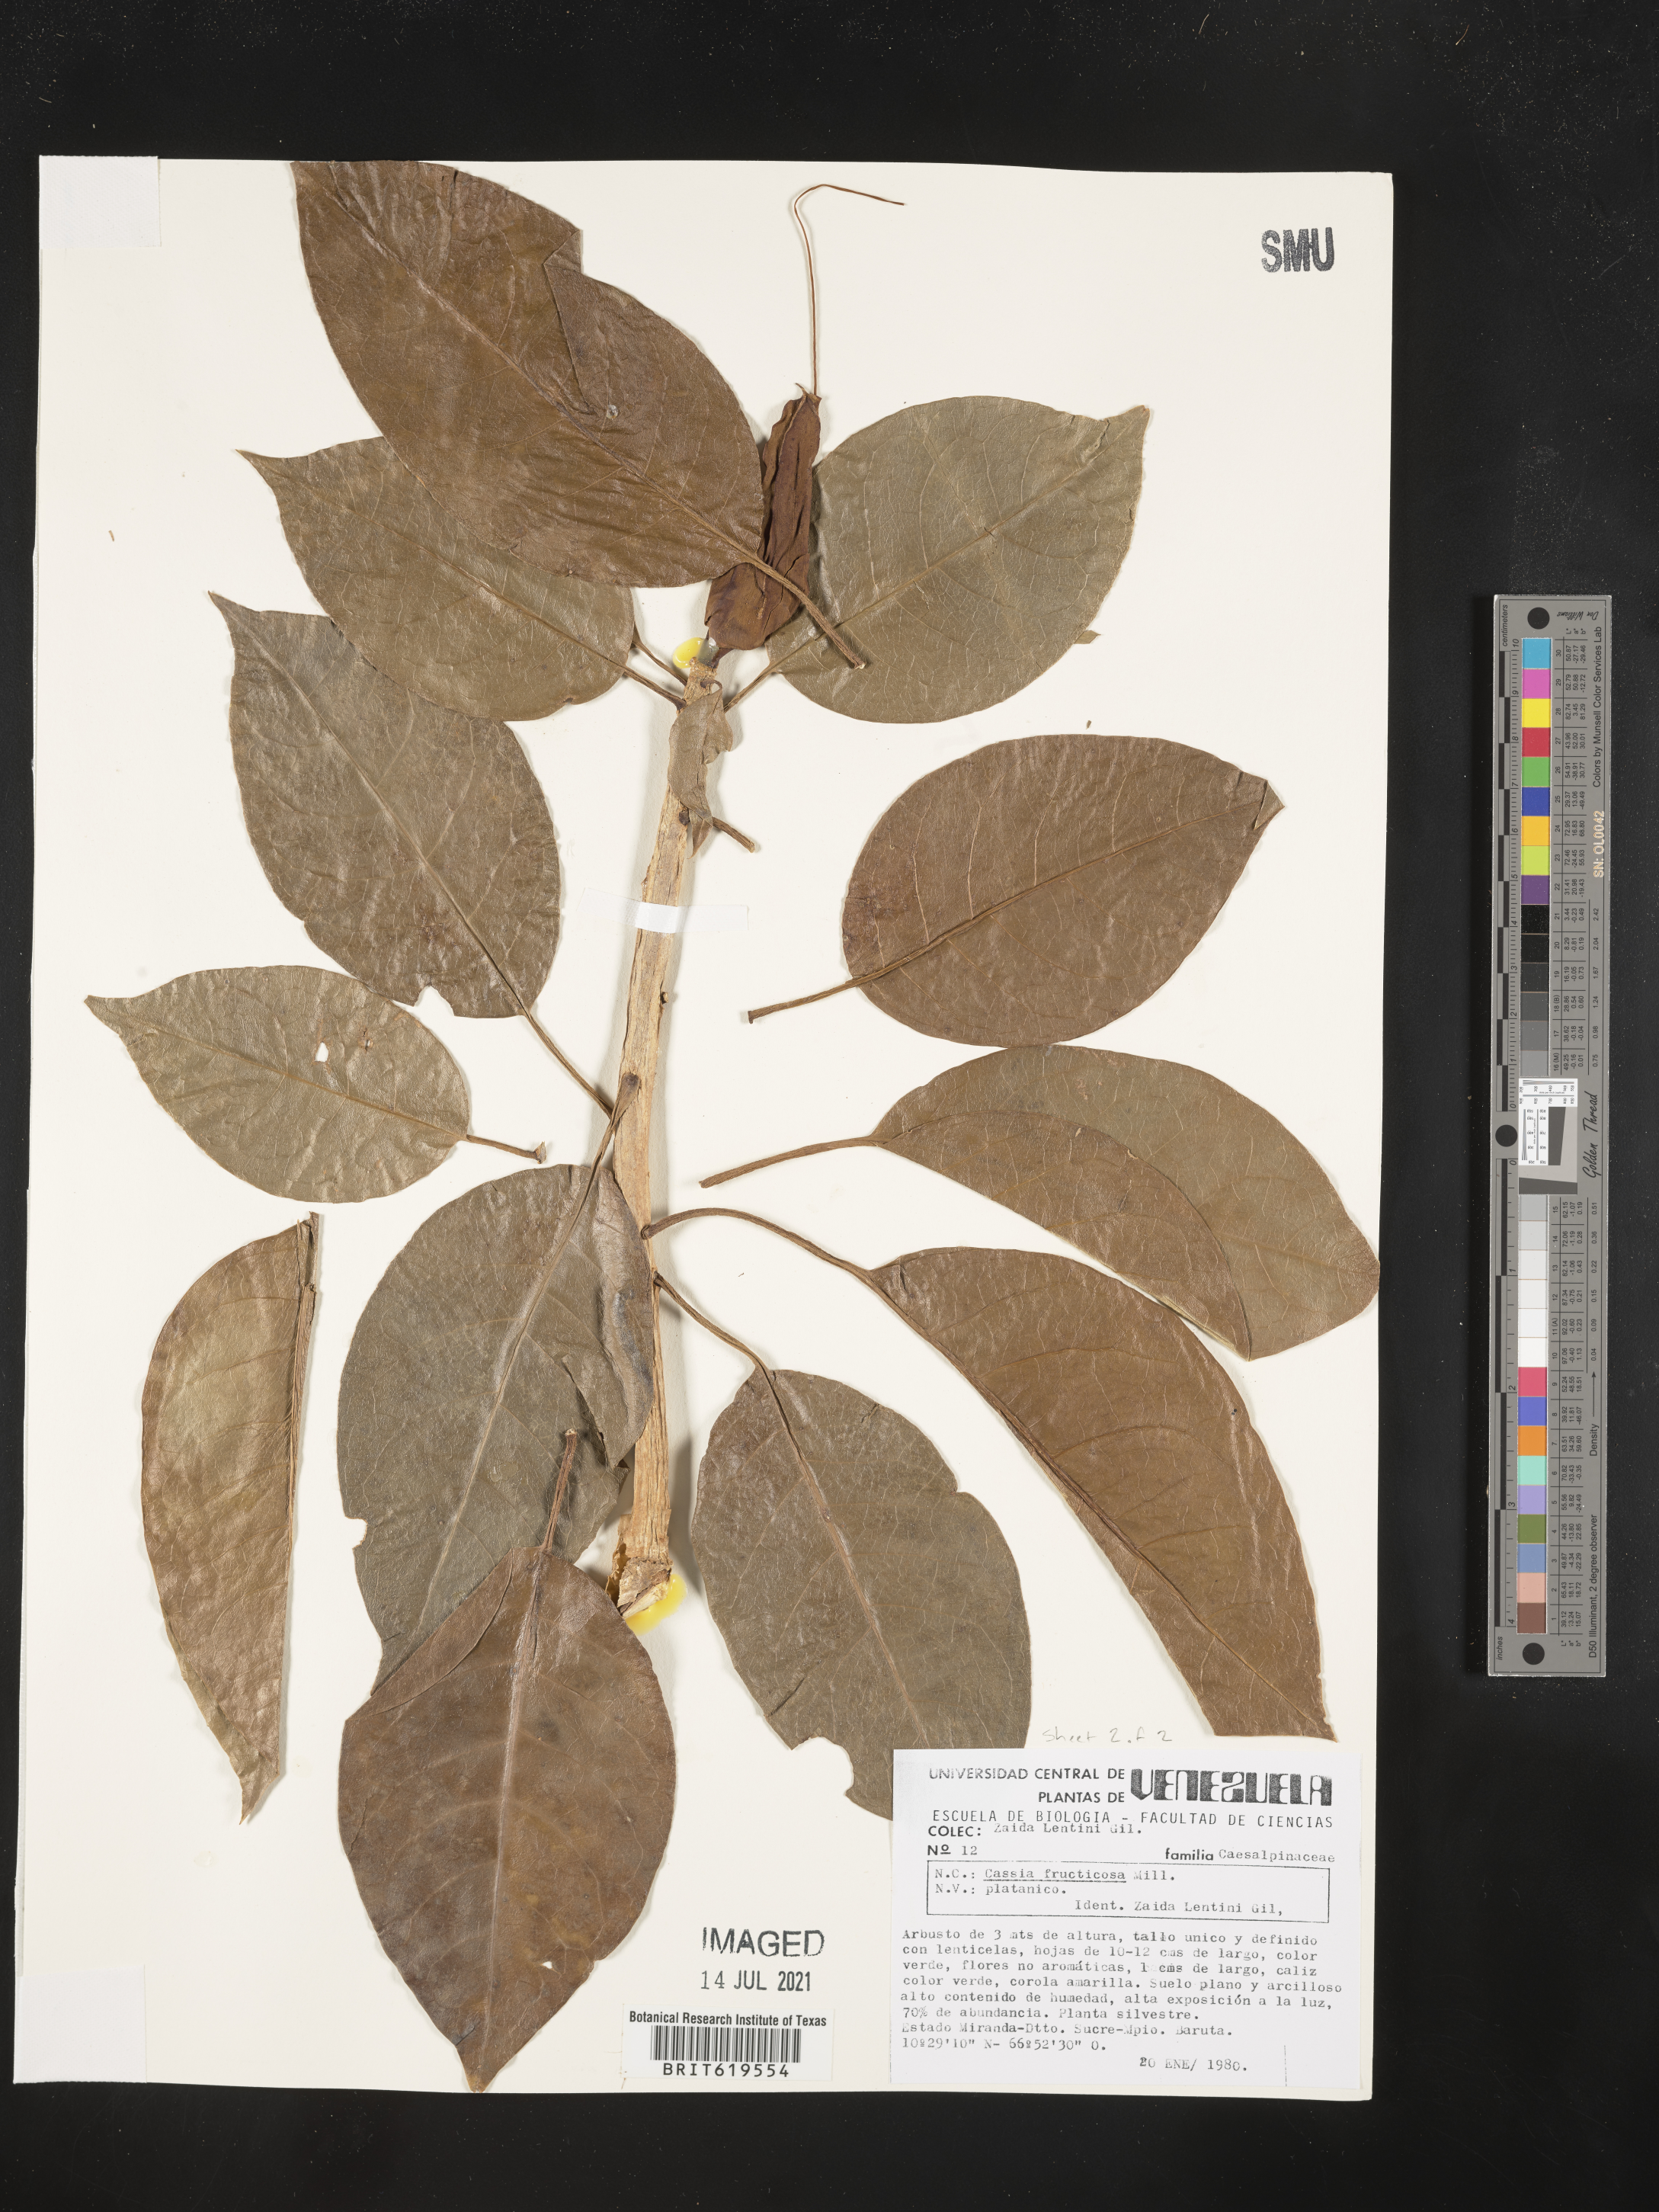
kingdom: Plantae
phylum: Tracheophyta
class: Magnoliopsida
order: Fabales
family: Fabaceae
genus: Senna
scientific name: Senna fructicosa
